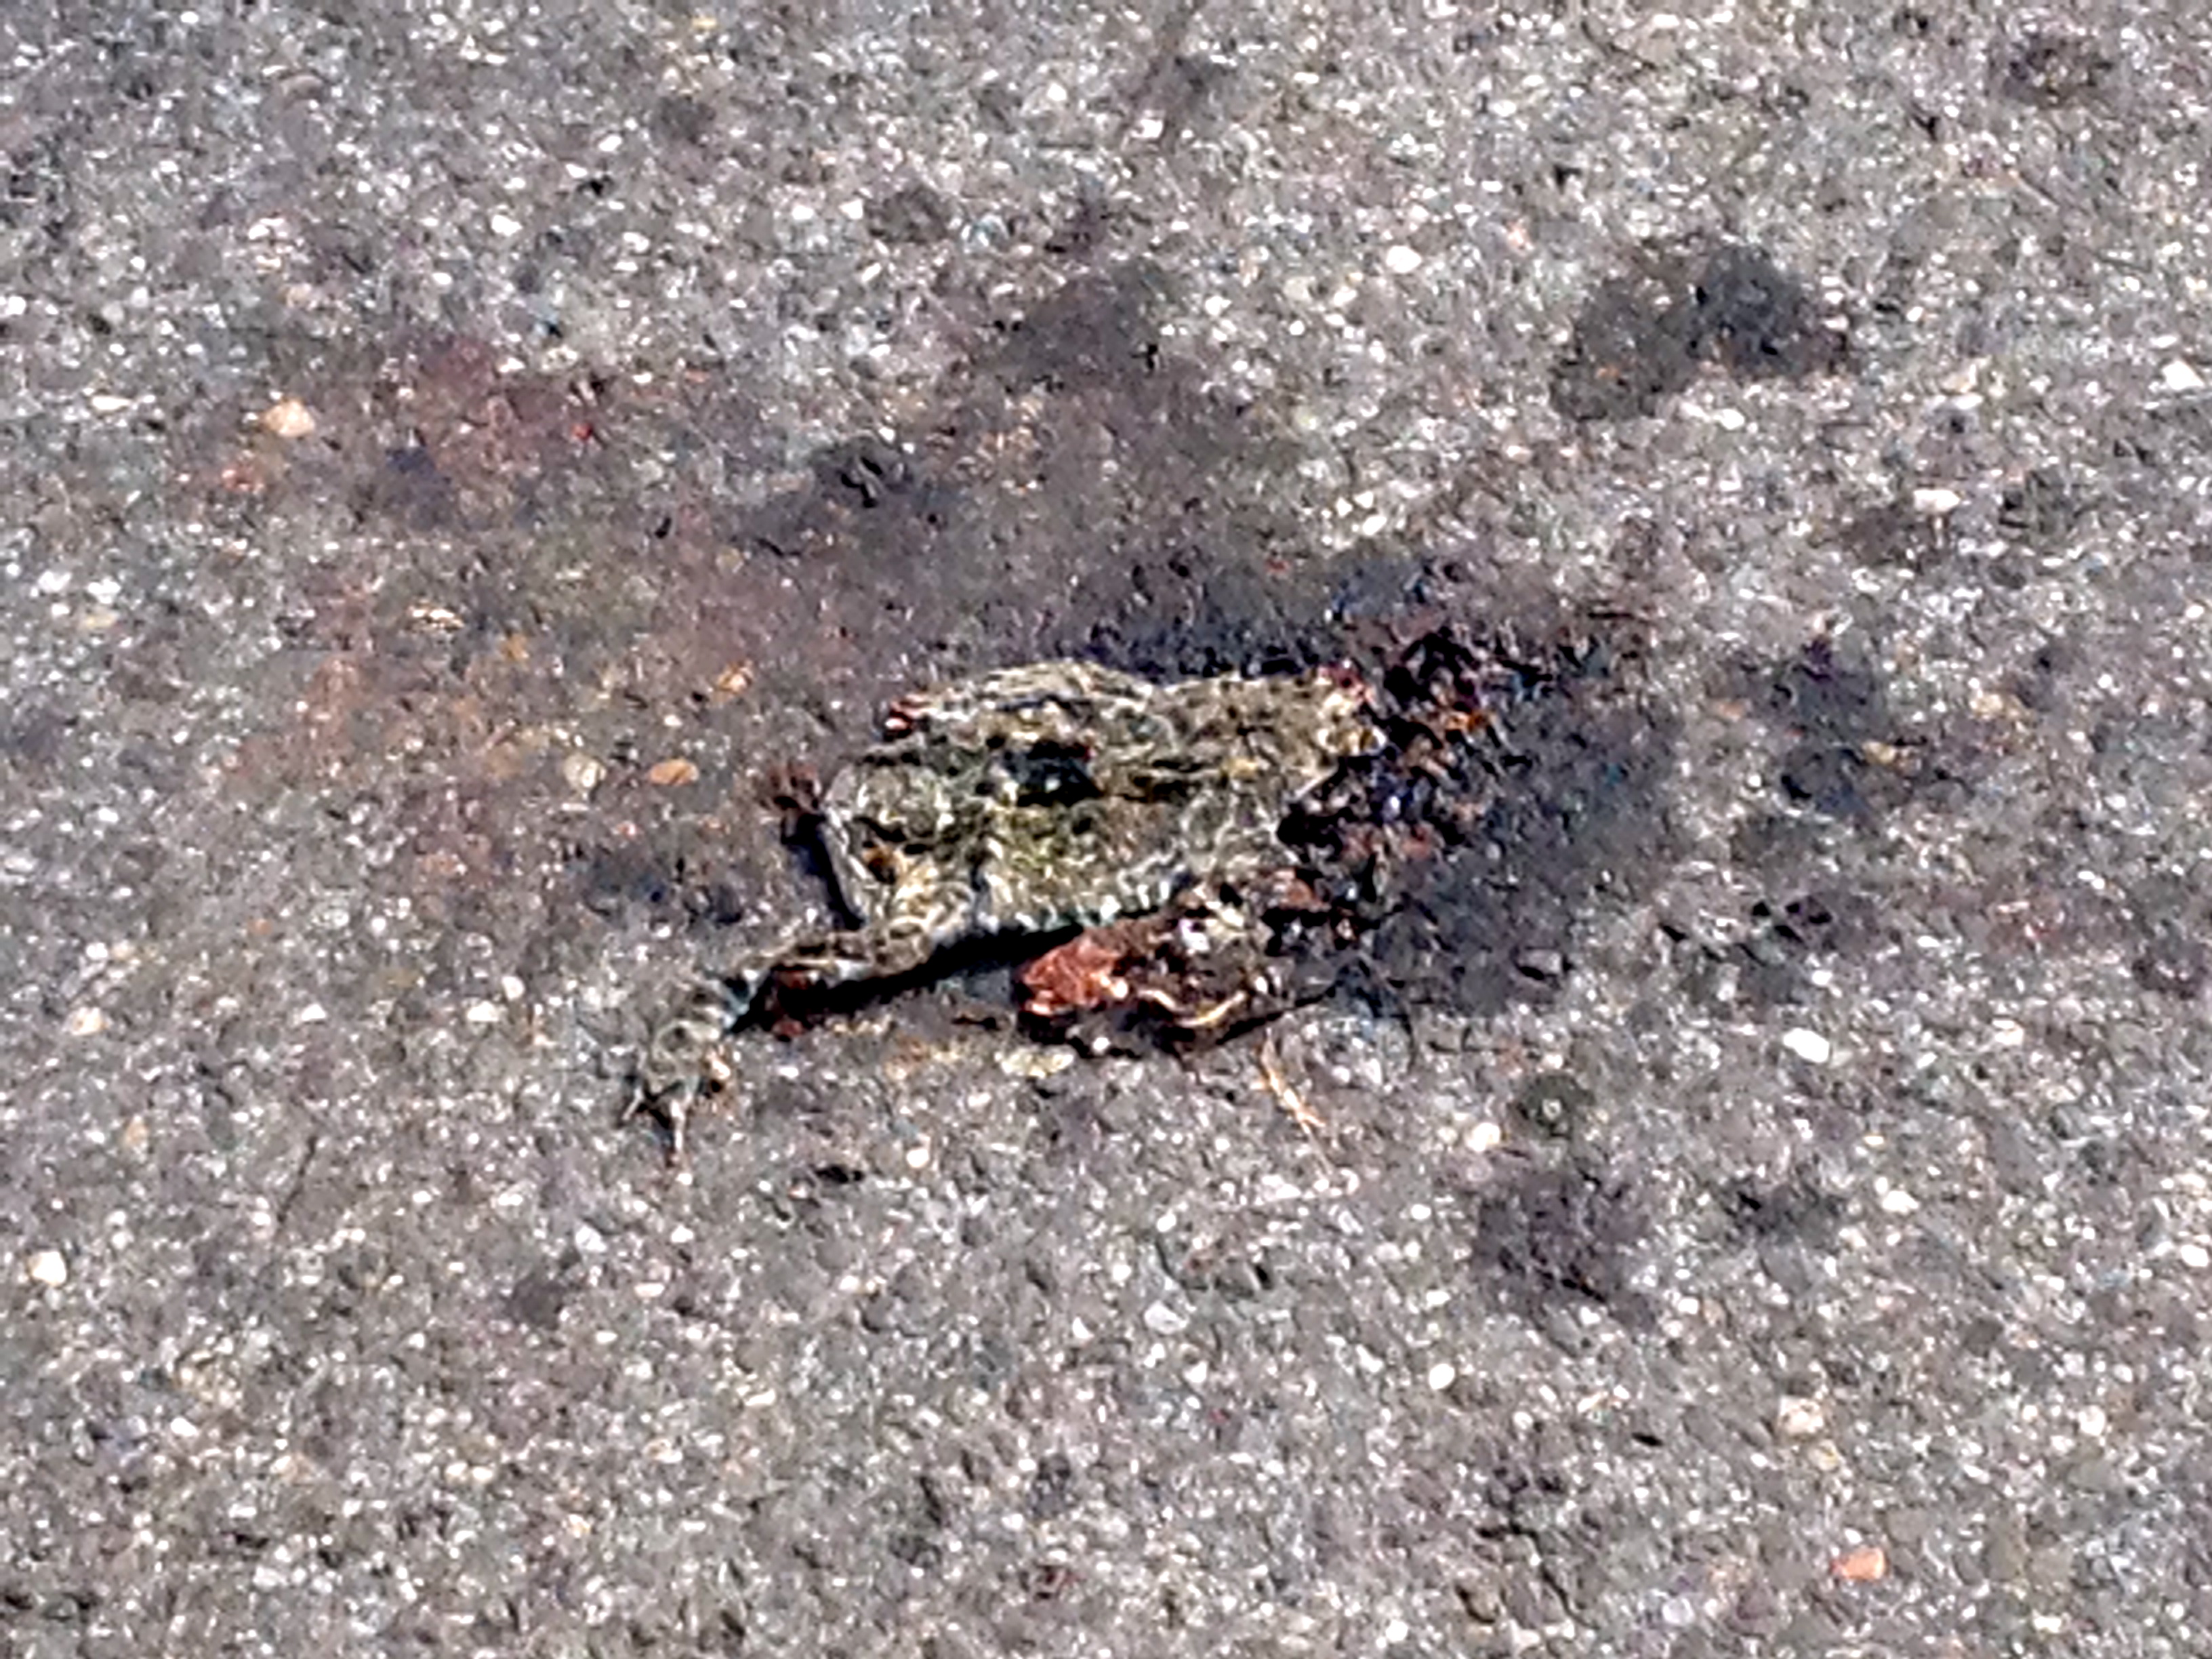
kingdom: Animalia
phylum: Chordata
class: Amphibia
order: Anura
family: Bufonidae
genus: Bufotes
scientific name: Bufotes viridis
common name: European green toad
